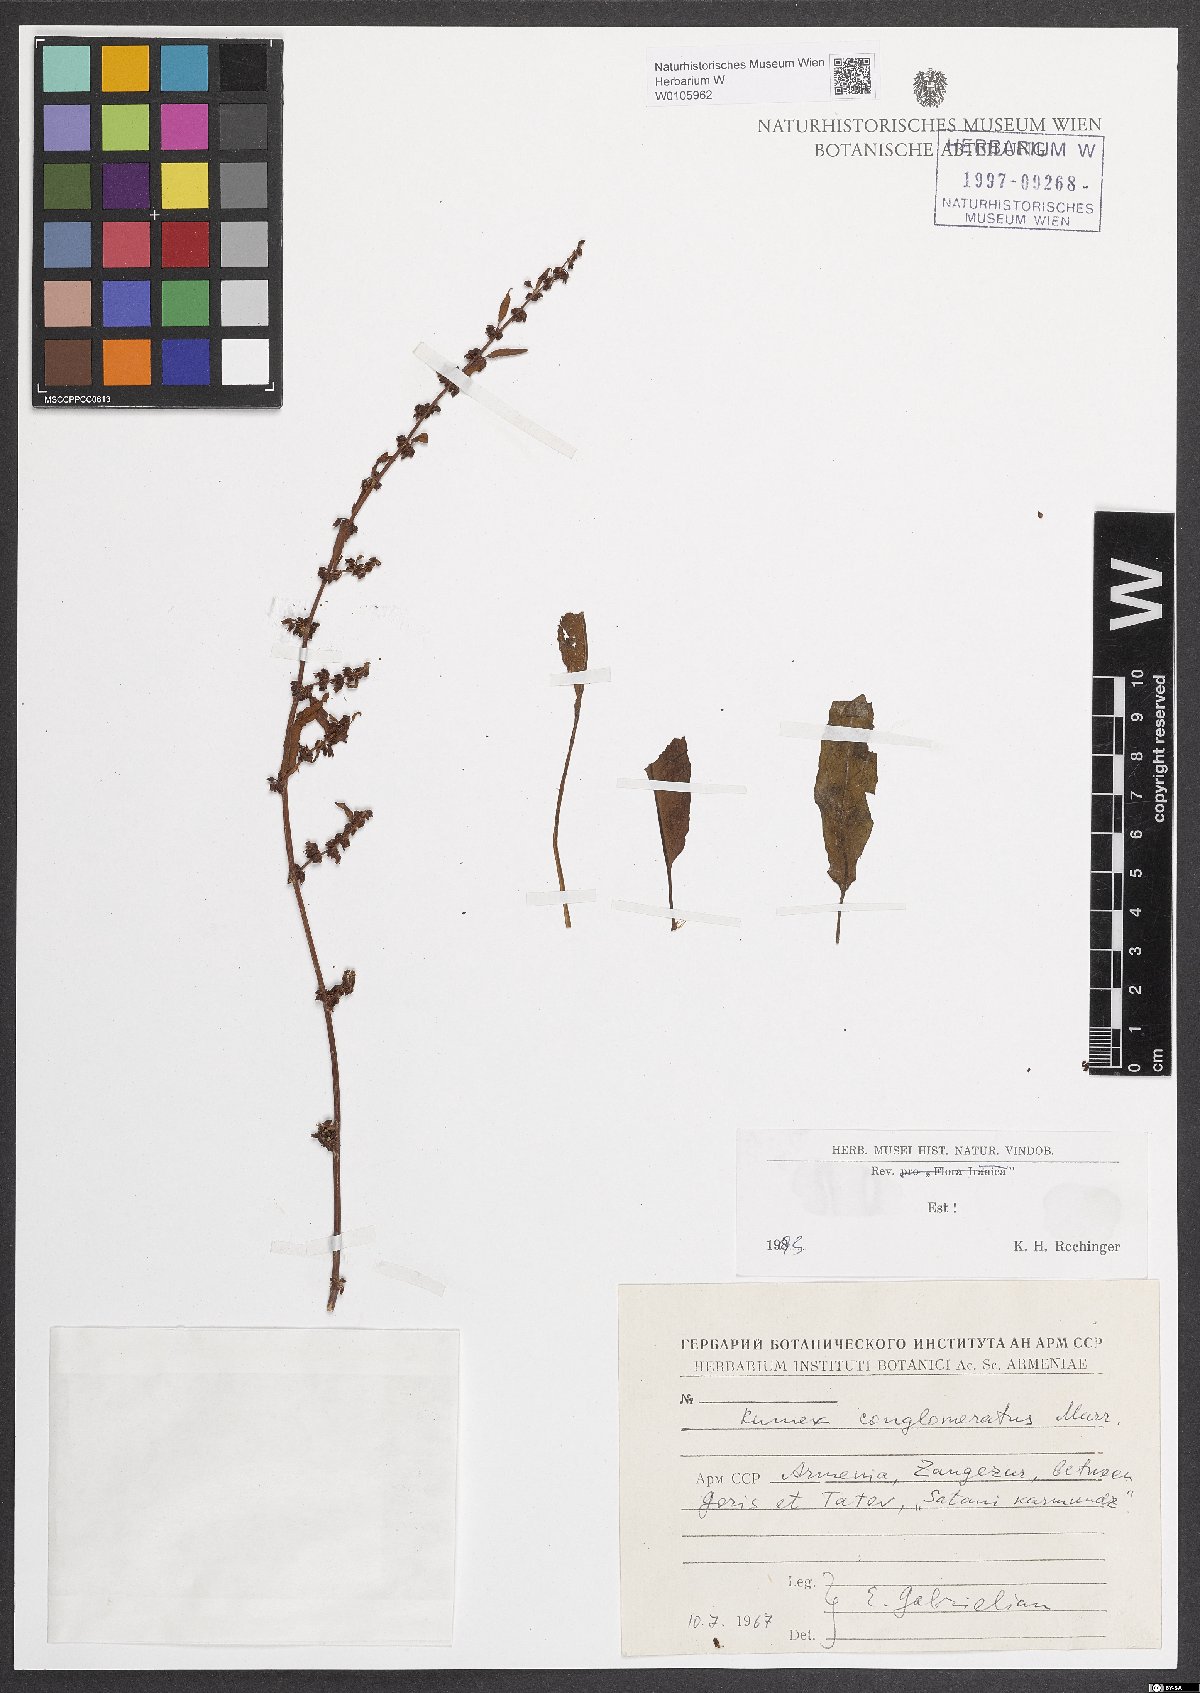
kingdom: Plantae
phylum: Tracheophyta
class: Magnoliopsida
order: Caryophyllales
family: Polygonaceae
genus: Rumex
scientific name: Rumex conglomeratus
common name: Clustered dock
